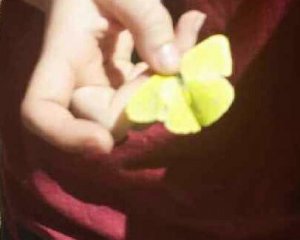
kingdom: Animalia
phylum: Arthropoda
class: Insecta
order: Lepidoptera
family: Pieridae
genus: Phoebis
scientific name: Phoebis sennae
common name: Cloudless Sulphur
